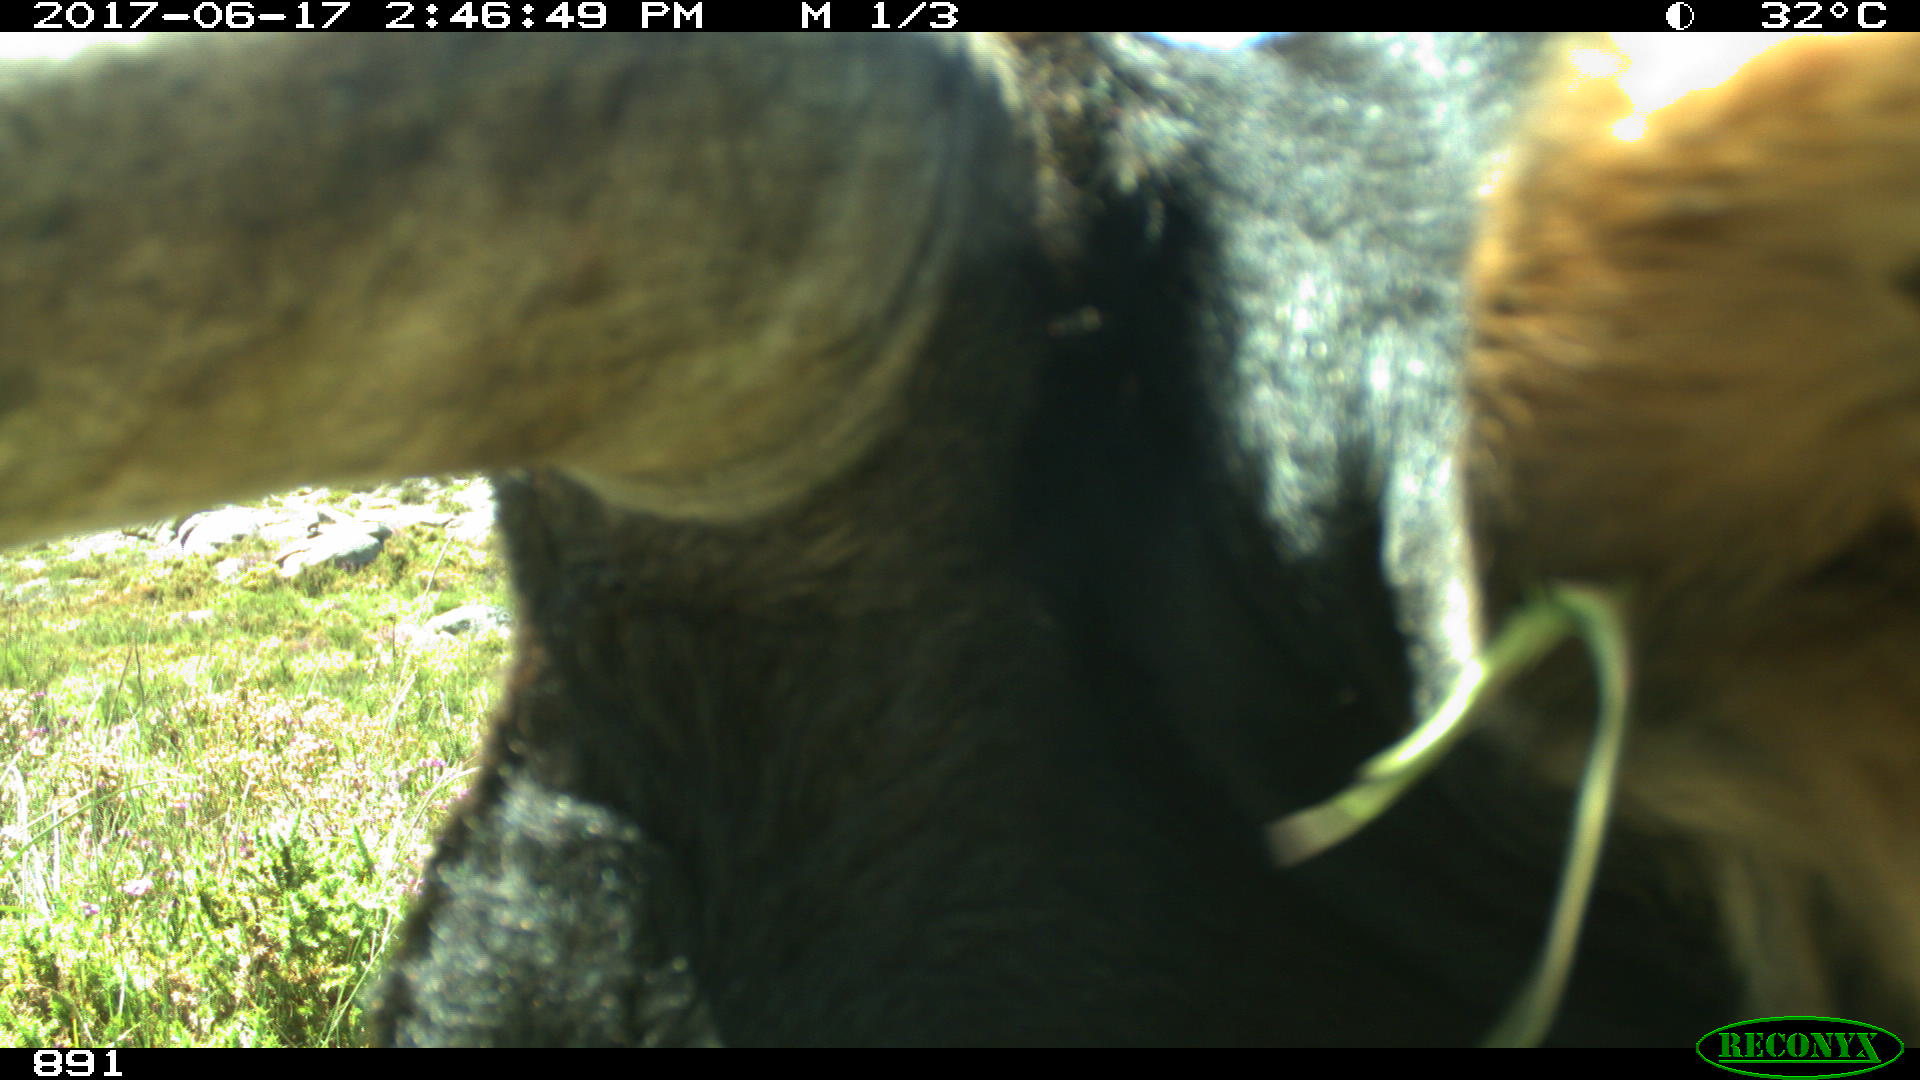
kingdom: Animalia
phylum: Chordata
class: Mammalia
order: Artiodactyla
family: Bovidae
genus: Bos
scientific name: Bos taurus
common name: Domesticated cattle
